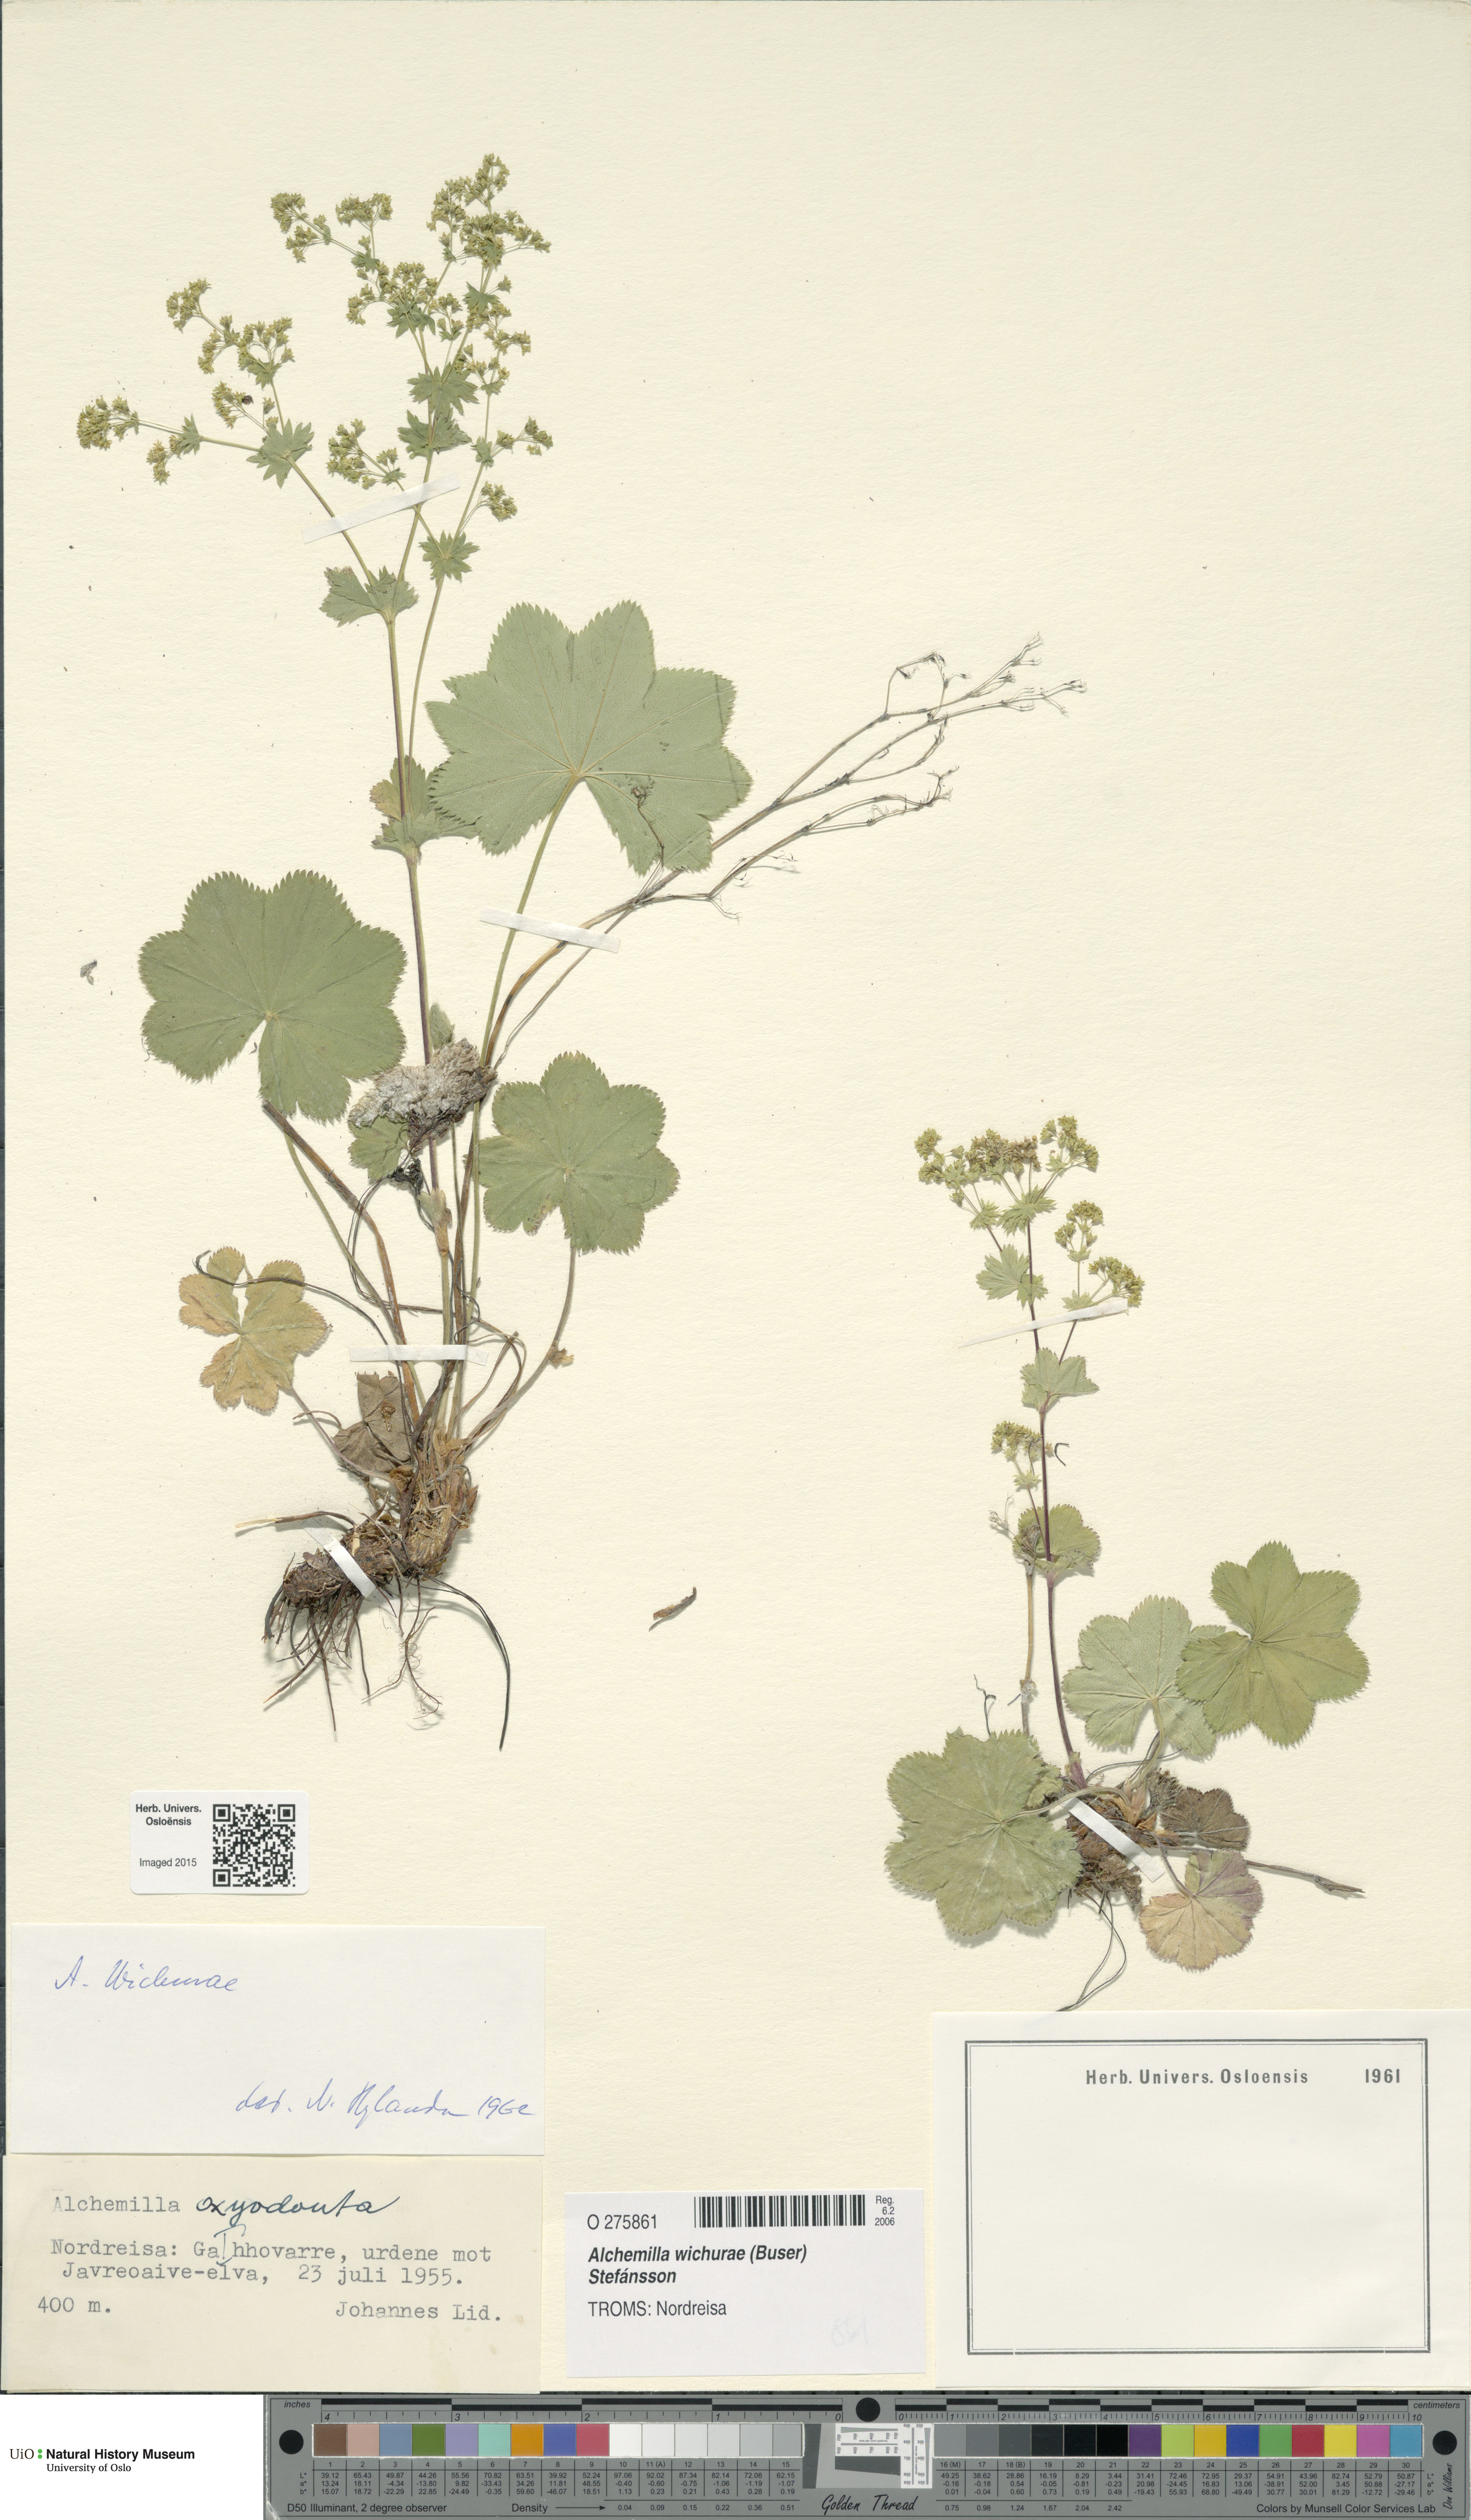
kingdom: Plantae
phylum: Tracheophyta
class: Magnoliopsida
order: Rosales
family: Rosaceae
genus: Alchemilla
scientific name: Alchemilla wichurae
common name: Rock lady's mantle
